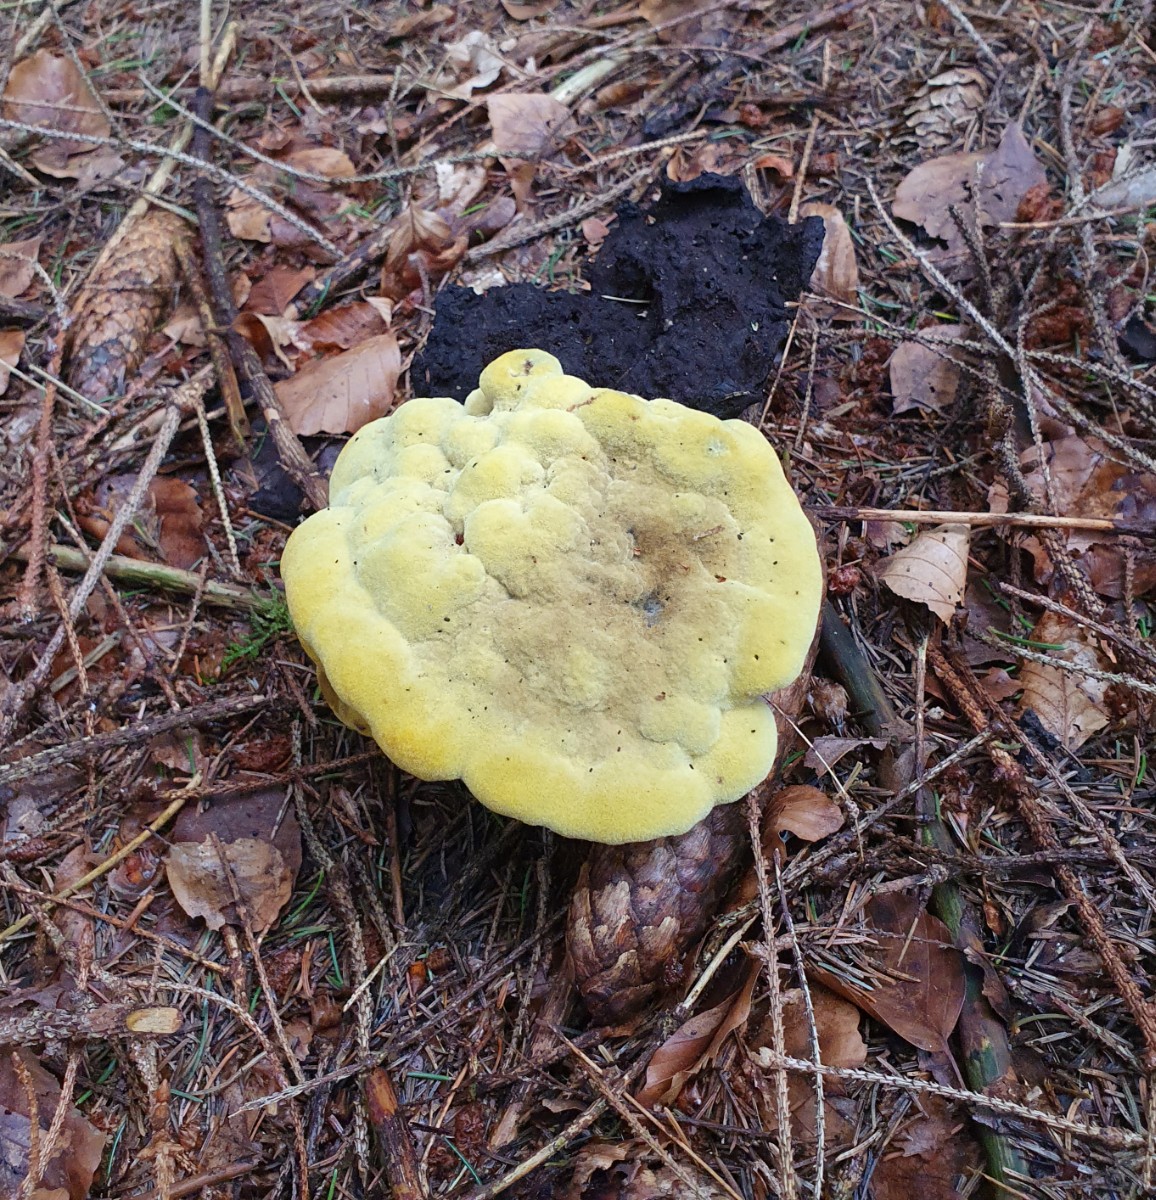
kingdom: Fungi
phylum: Basidiomycota
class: Agaricomycetes
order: Polyporales
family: Laetiporaceae
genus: Phaeolus
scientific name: Phaeolus schweinitzii
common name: brunporesvamp
